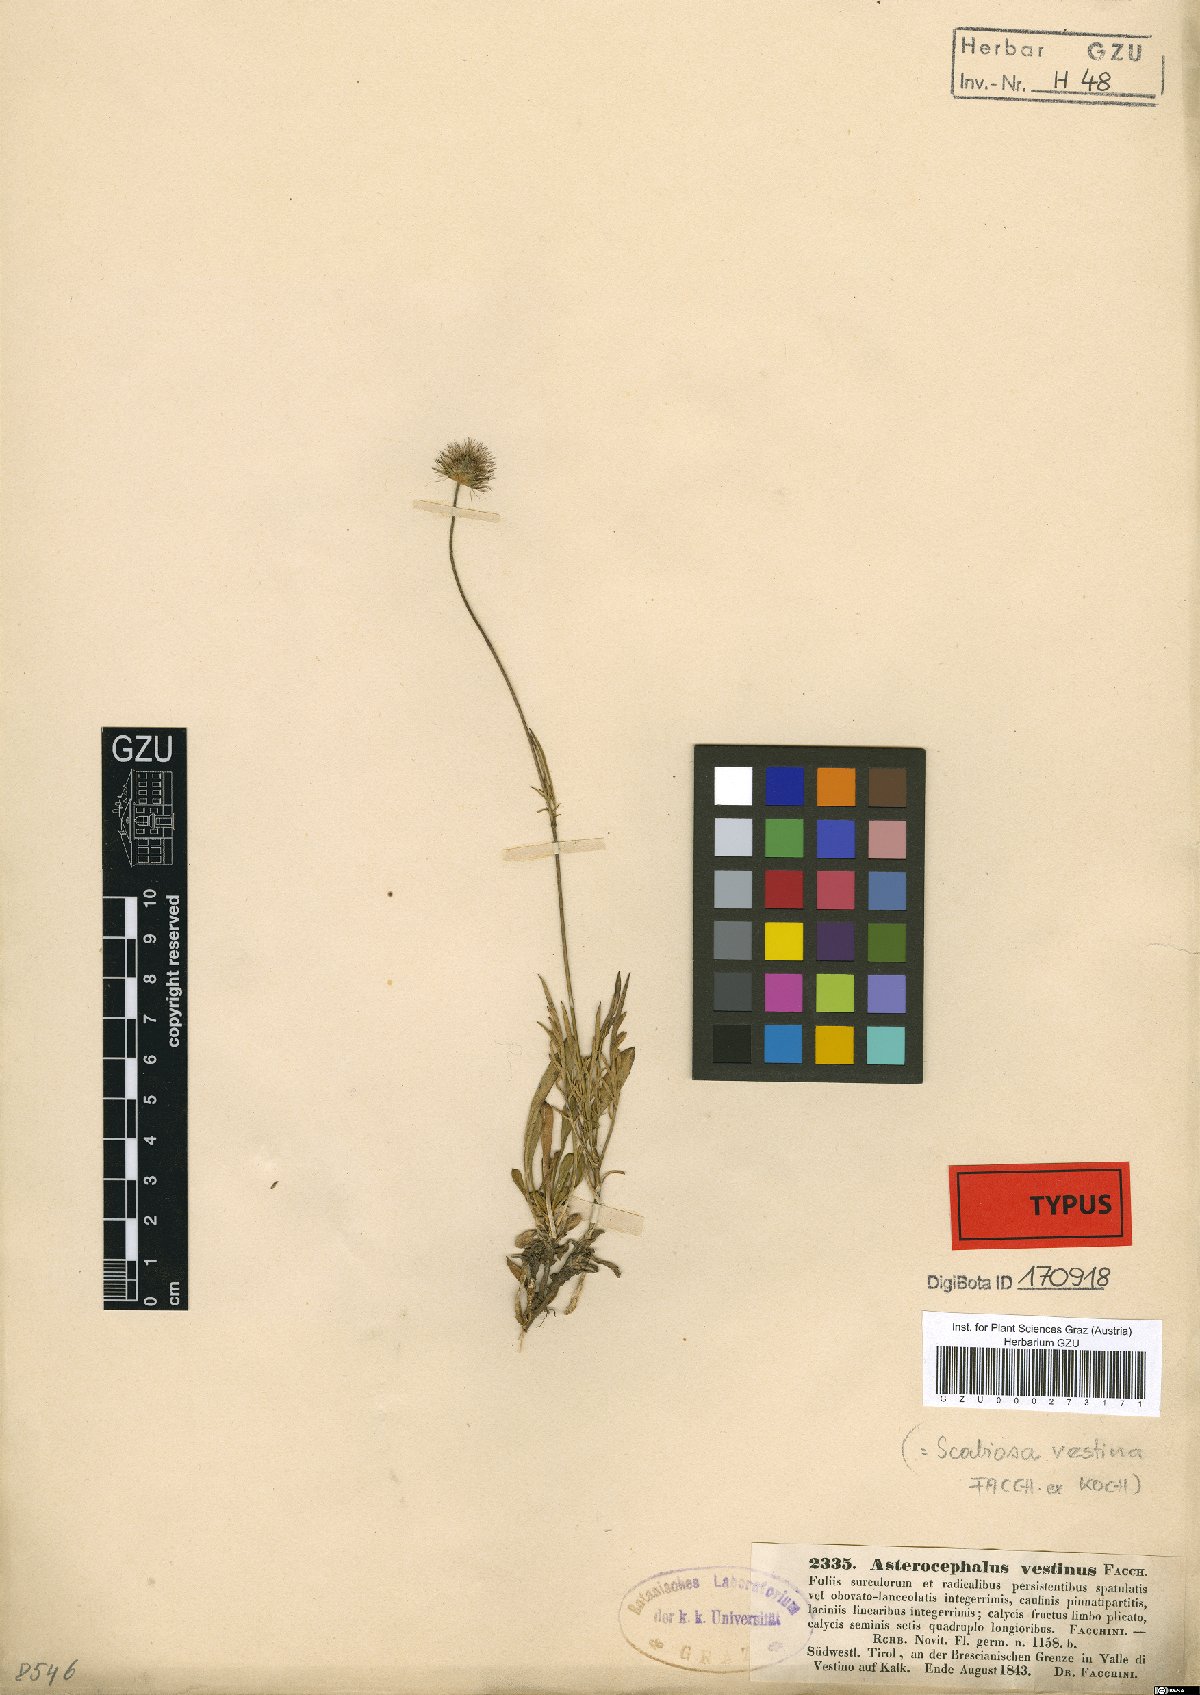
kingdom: Plantae
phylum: Tracheophyta
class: Magnoliopsida
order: Dipsacales
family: Caprifoliaceae
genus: Scabiosa
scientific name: Scabiosa vestina
